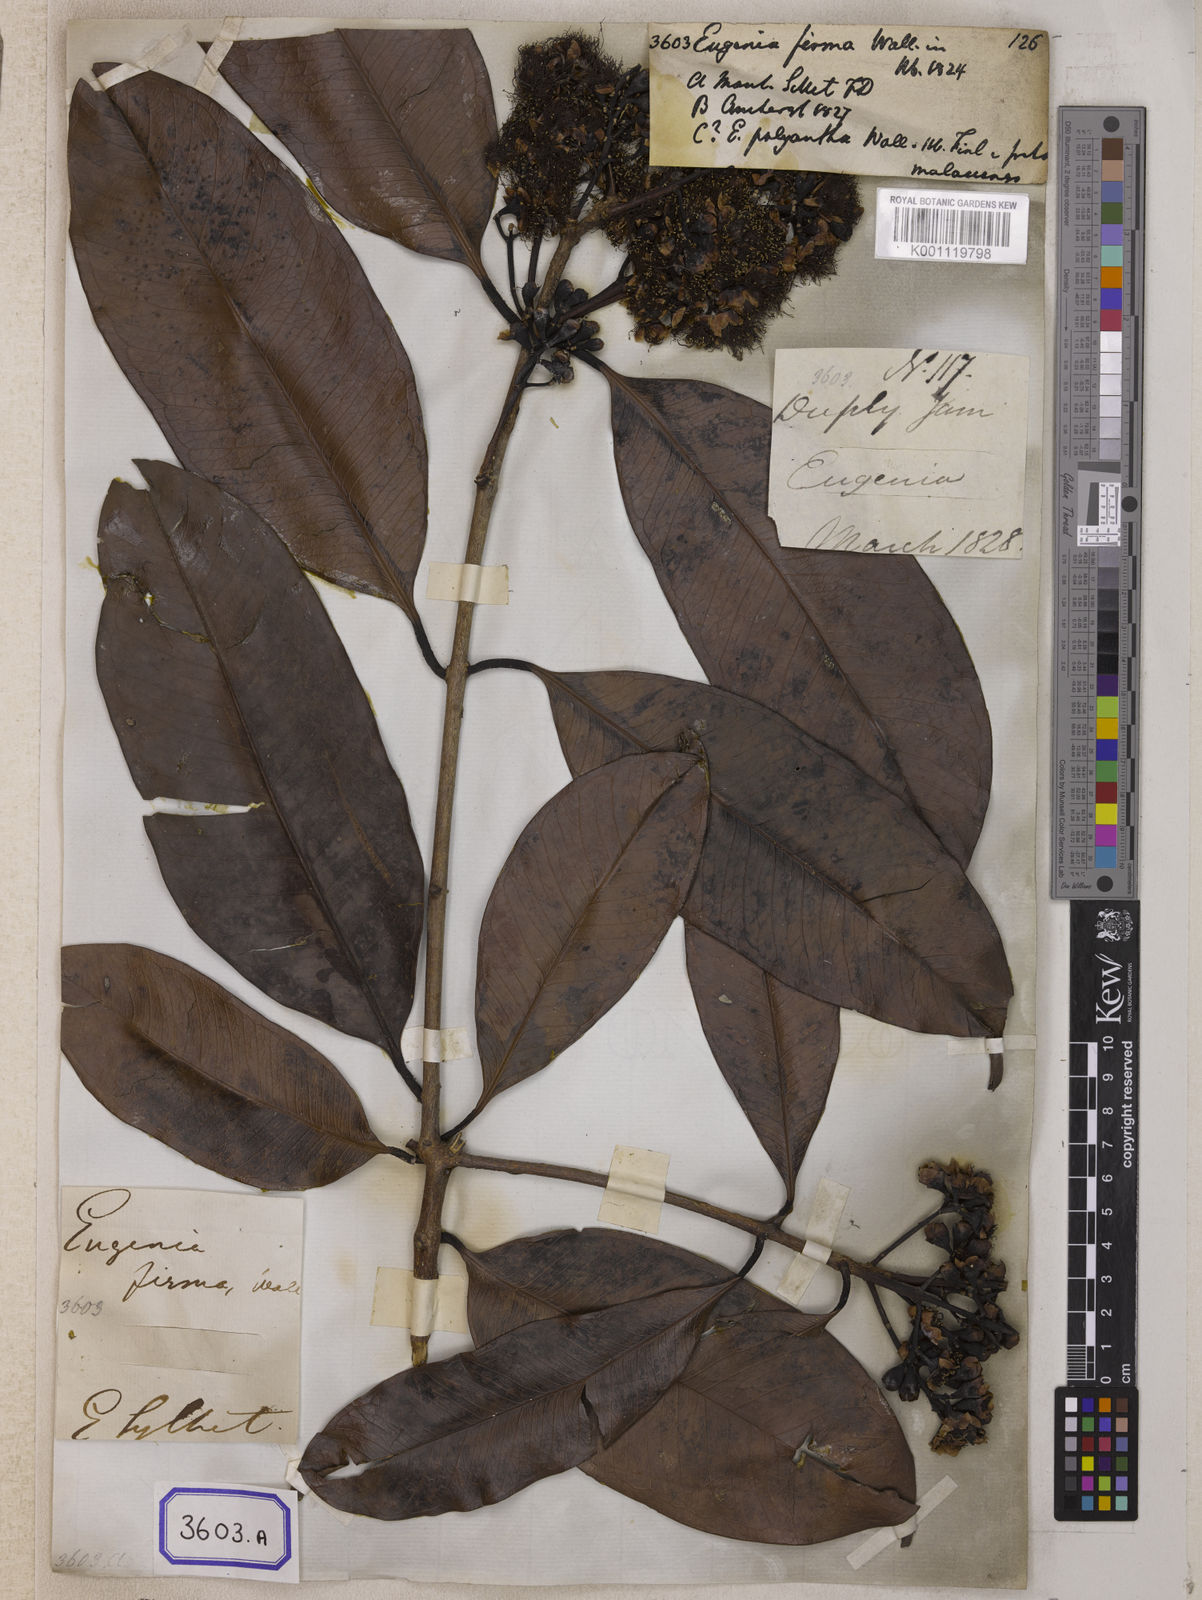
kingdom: Plantae
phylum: Tracheophyta
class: Magnoliopsida
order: Myrtales
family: Myrtaceae
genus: Eugenia
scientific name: Eugenia
